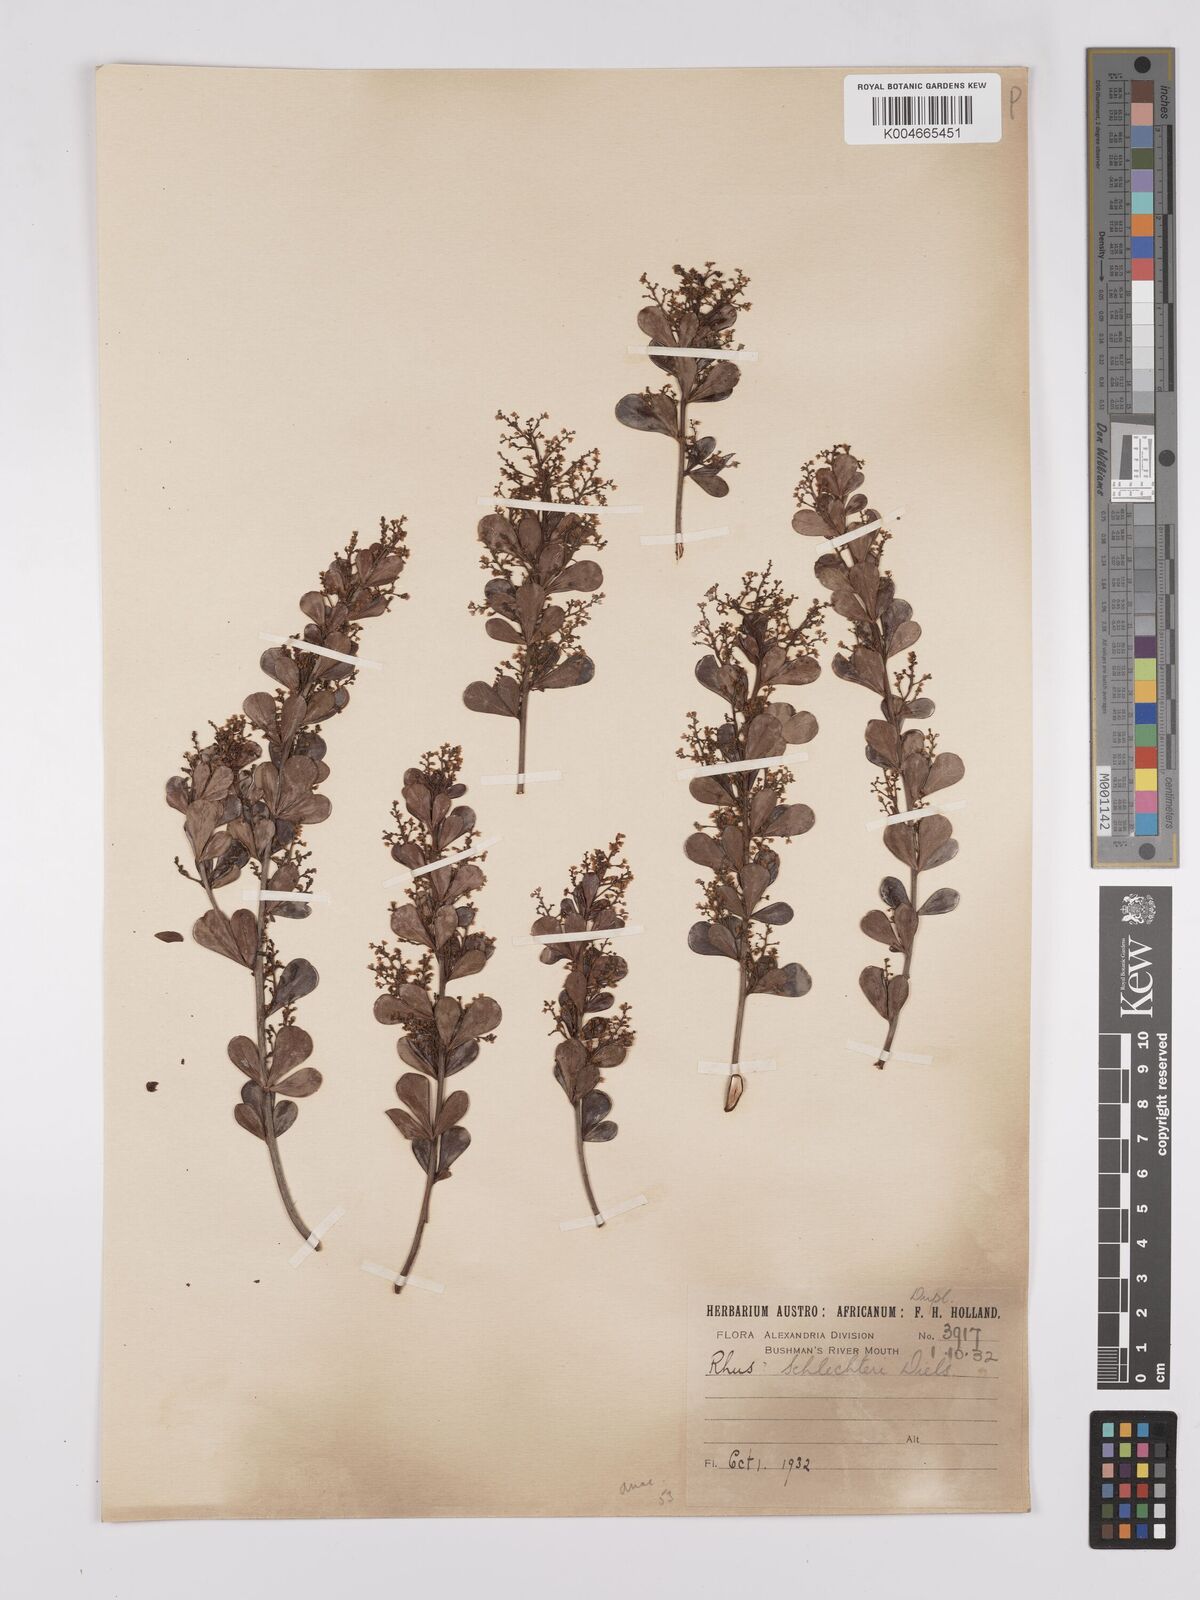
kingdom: Plantae
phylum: Tracheophyta
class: Magnoliopsida
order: Sapindales
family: Anacardiaceae
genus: Searsia
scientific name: Searsia lucida
